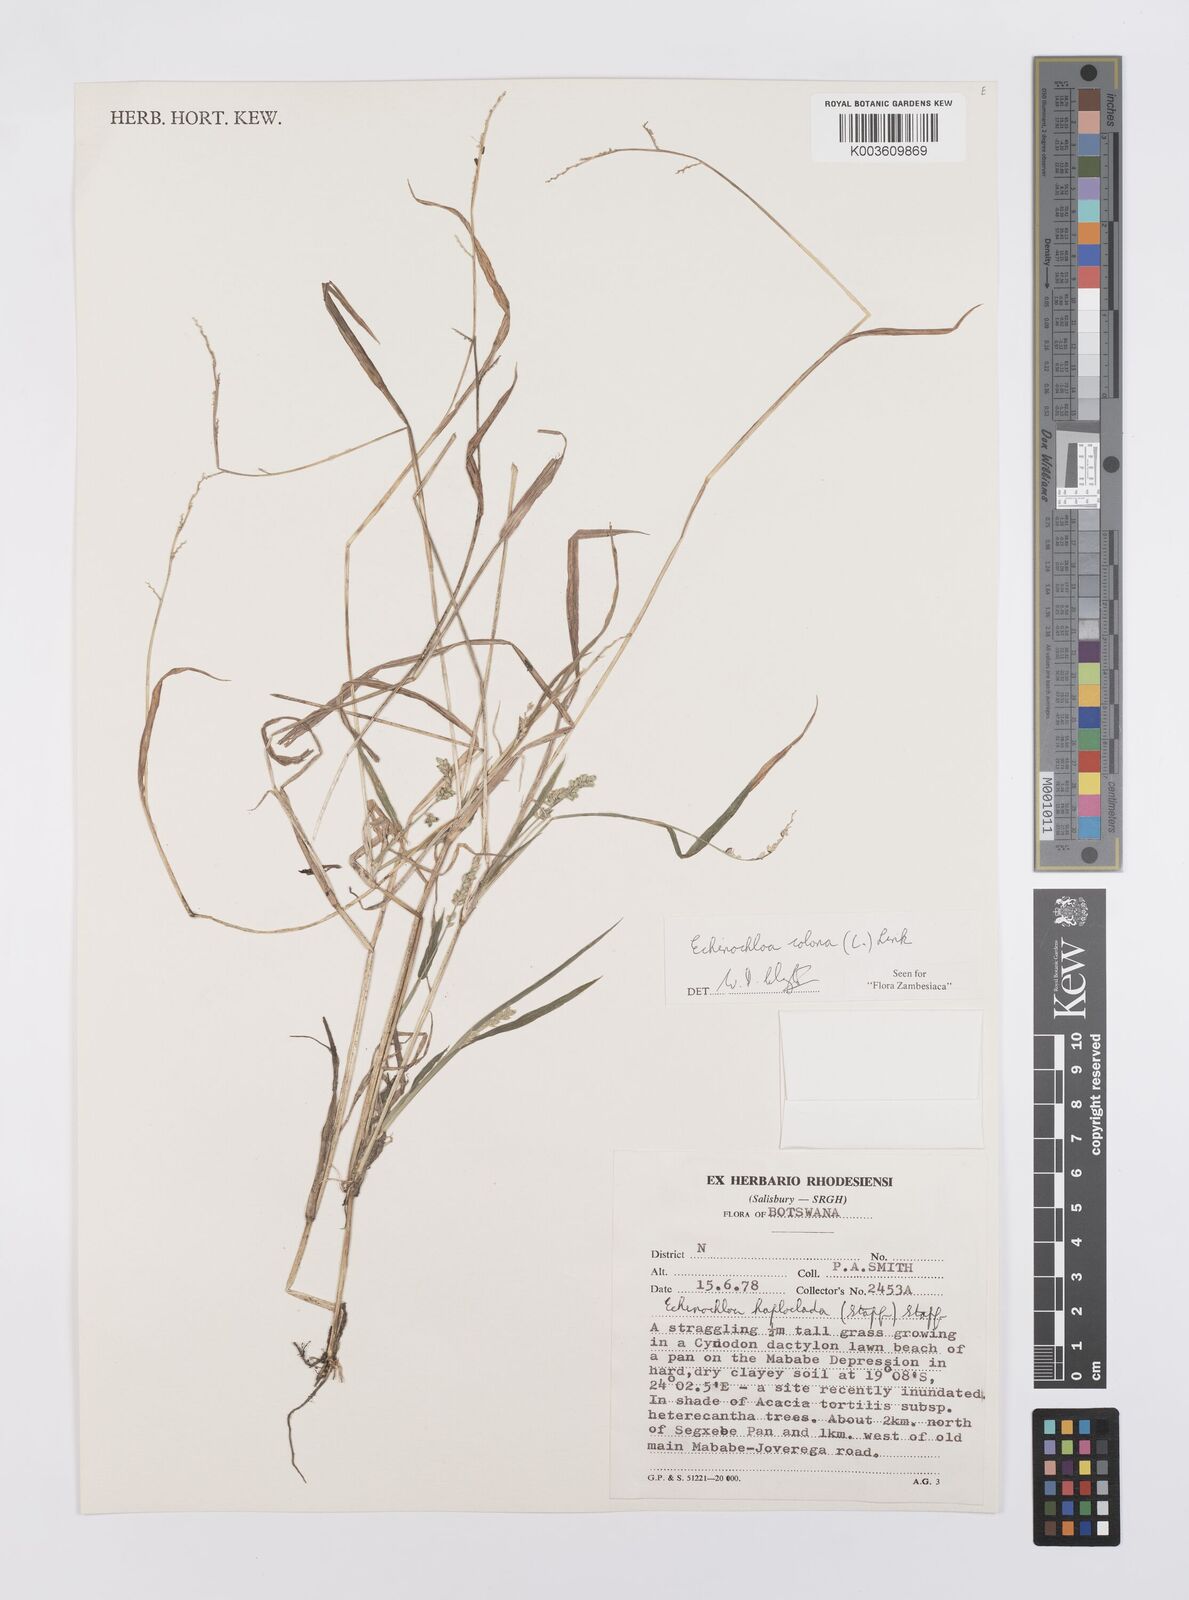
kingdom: Plantae
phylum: Tracheophyta
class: Liliopsida
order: Poales
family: Poaceae
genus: Echinochloa
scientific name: Echinochloa colonum
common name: Jungle rice
